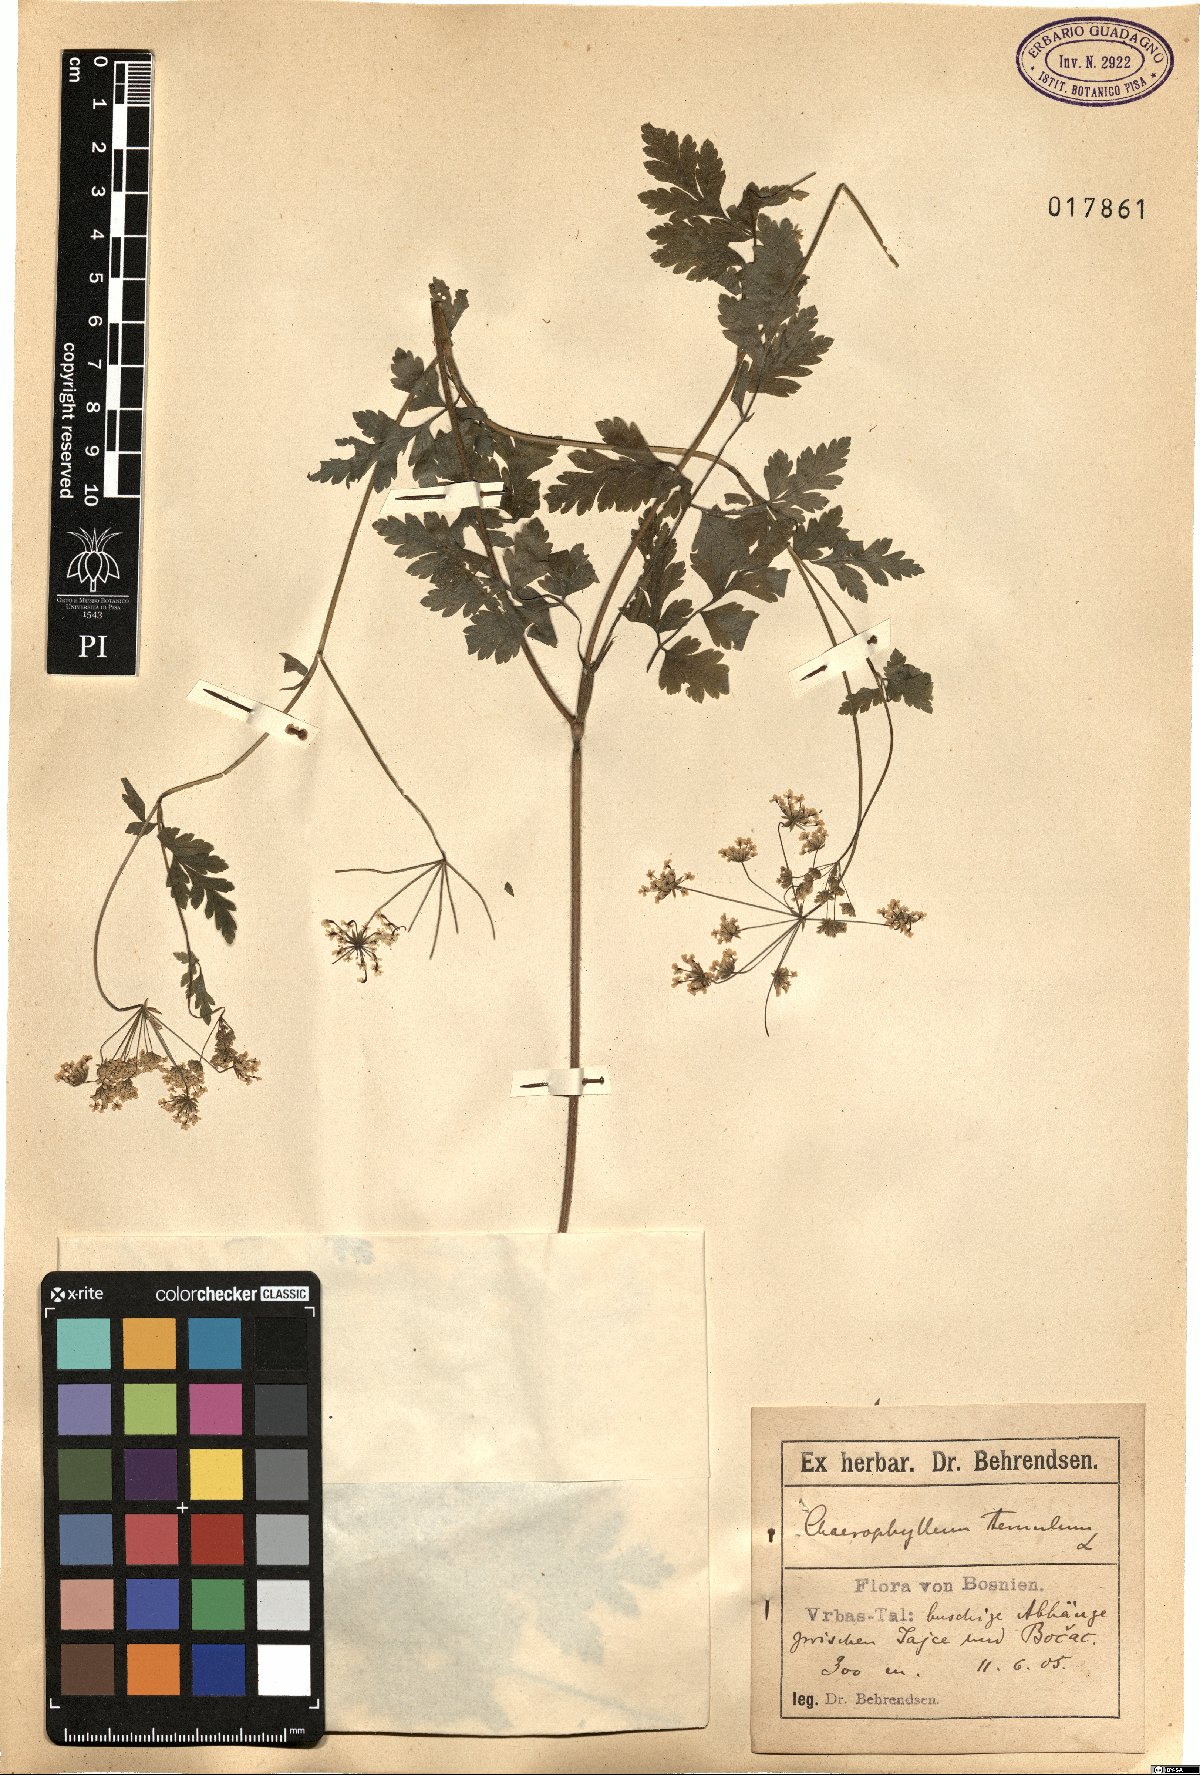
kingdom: Plantae
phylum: Tracheophyta
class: Magnoliopsida
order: Apiales
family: Apiaceae
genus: Chaerophyllum
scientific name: Chaerophyllum temulum
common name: Rough chervil
